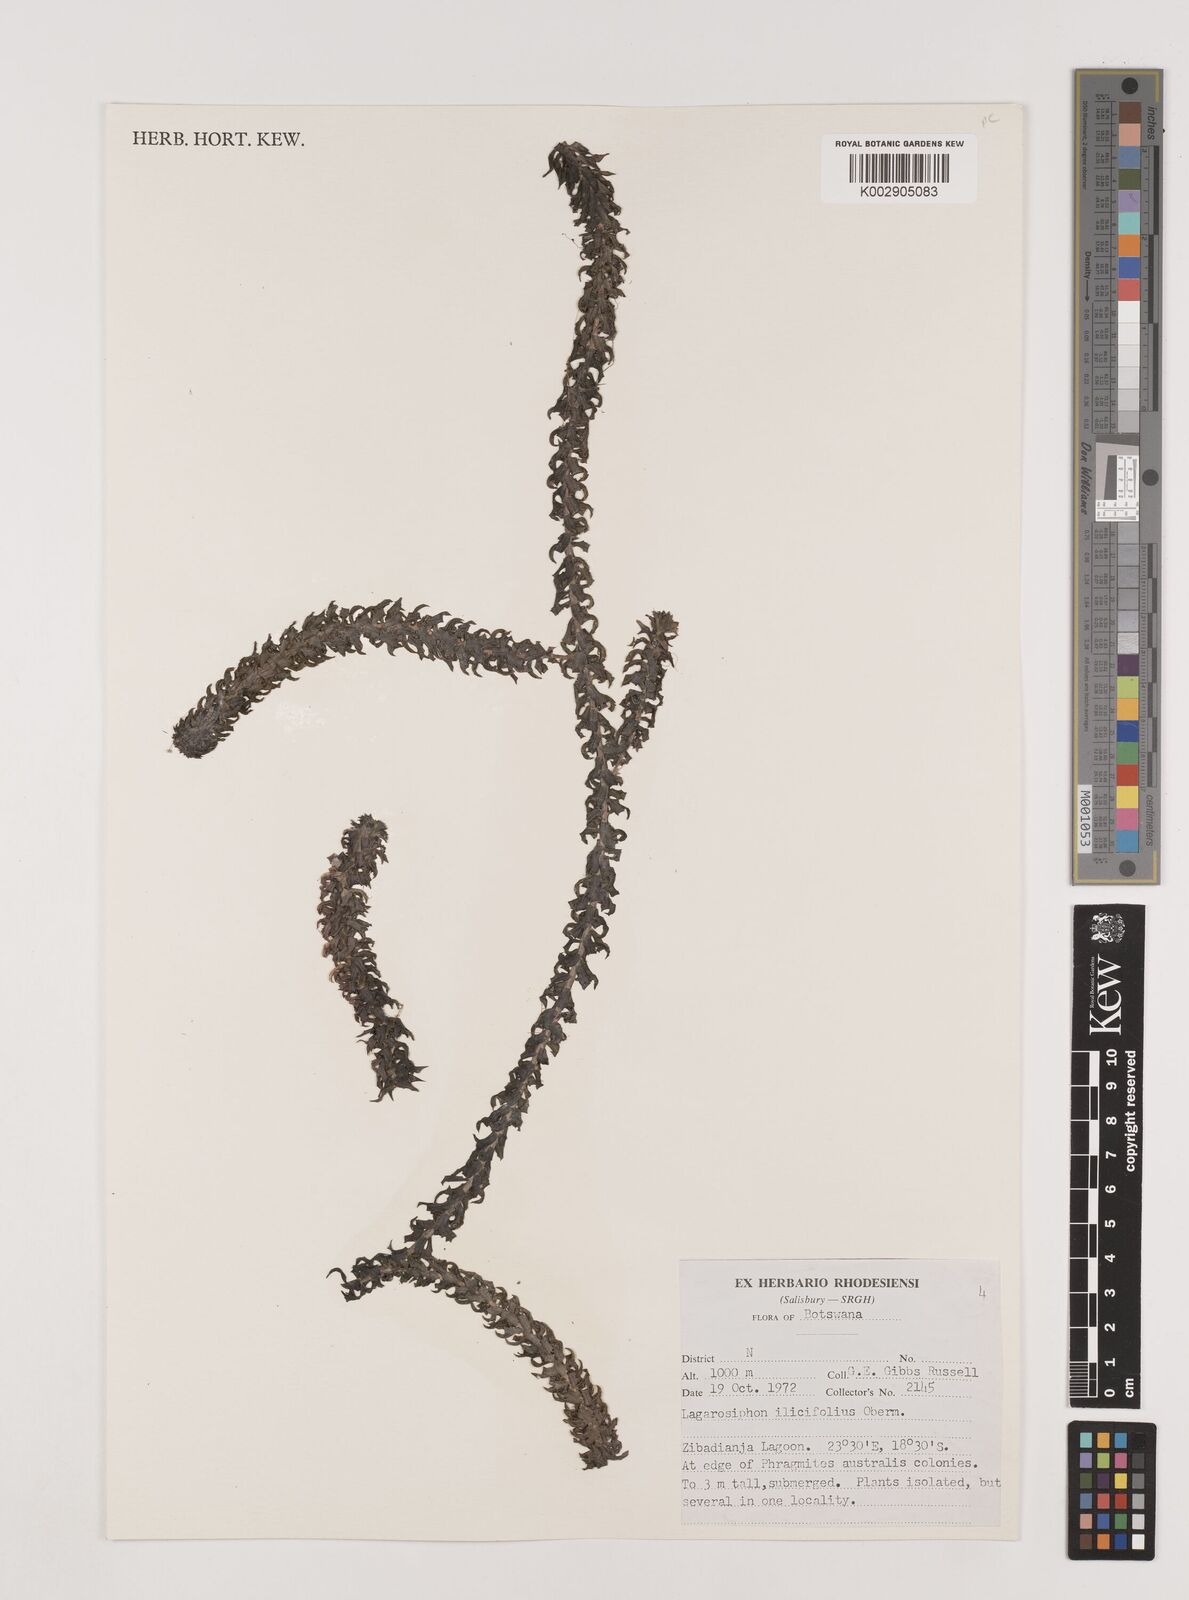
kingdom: Plantae
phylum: Tracheophyta
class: Liliopsida
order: Alismatales
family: Hydrocharitaceae
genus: Lagarosiphon
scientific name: Lagarosiphon ilicifolius
